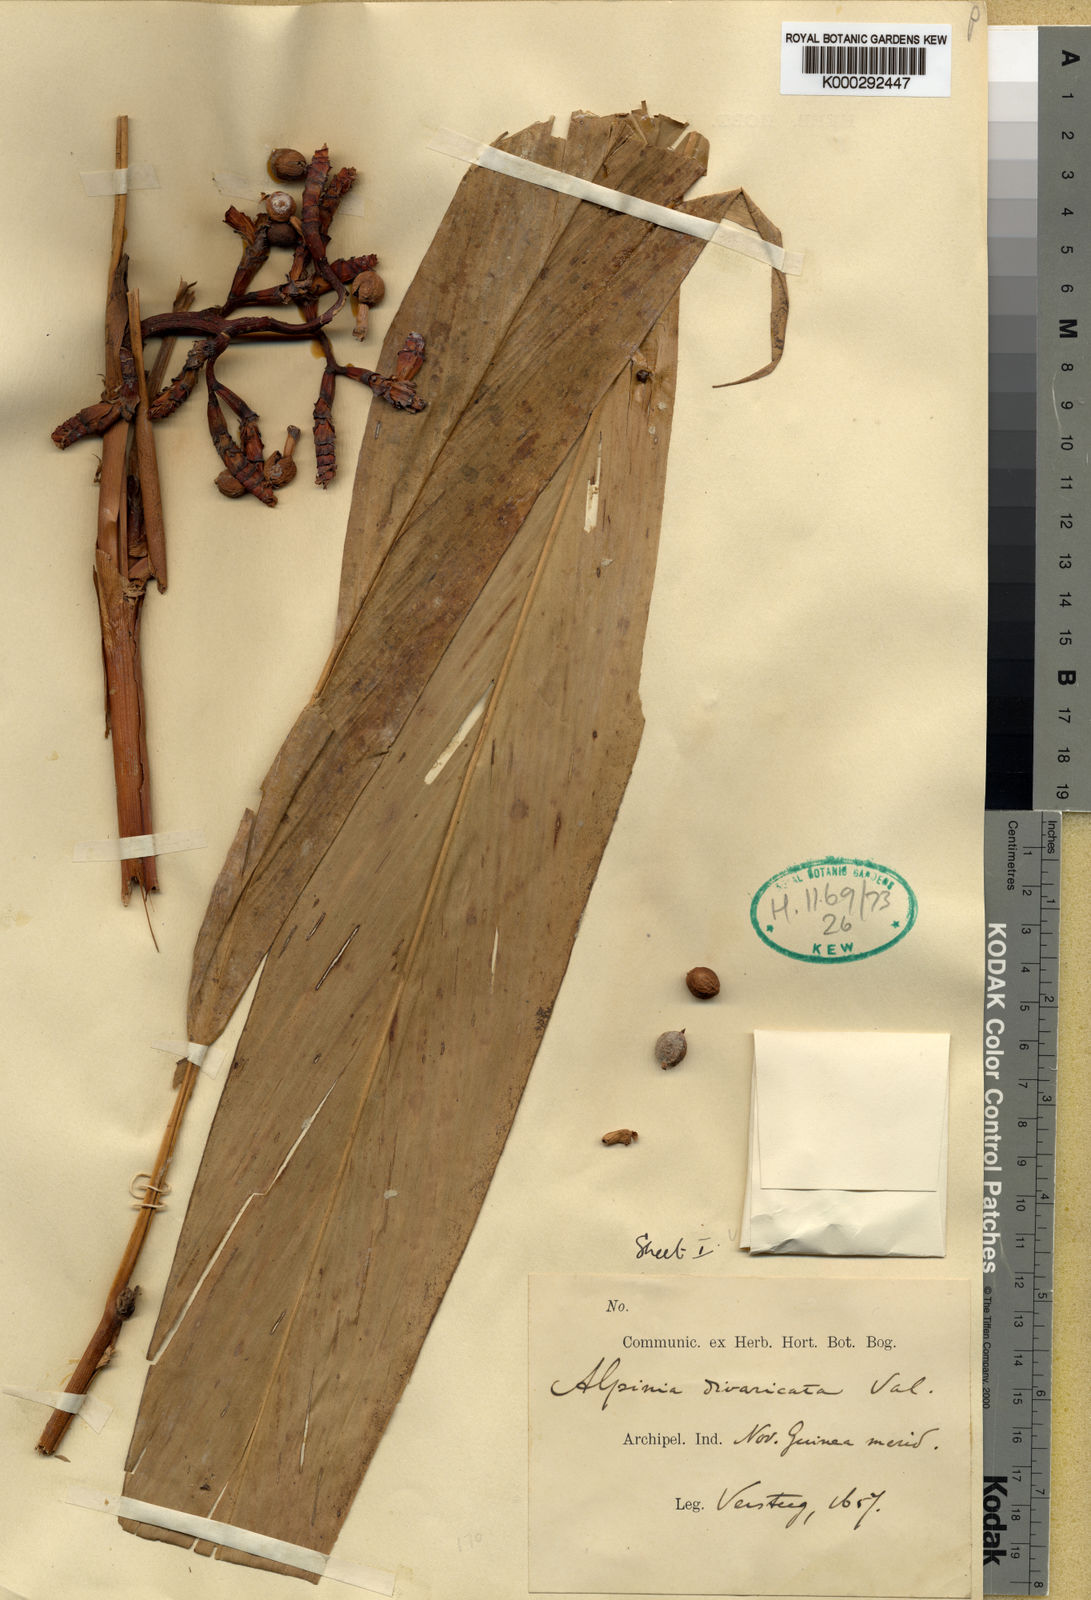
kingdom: Plantae
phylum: Tracheophyta
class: Liliopsida
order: Zingiberales
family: Zingiberaceae
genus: Alpinia
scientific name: Alpinia divaricata
